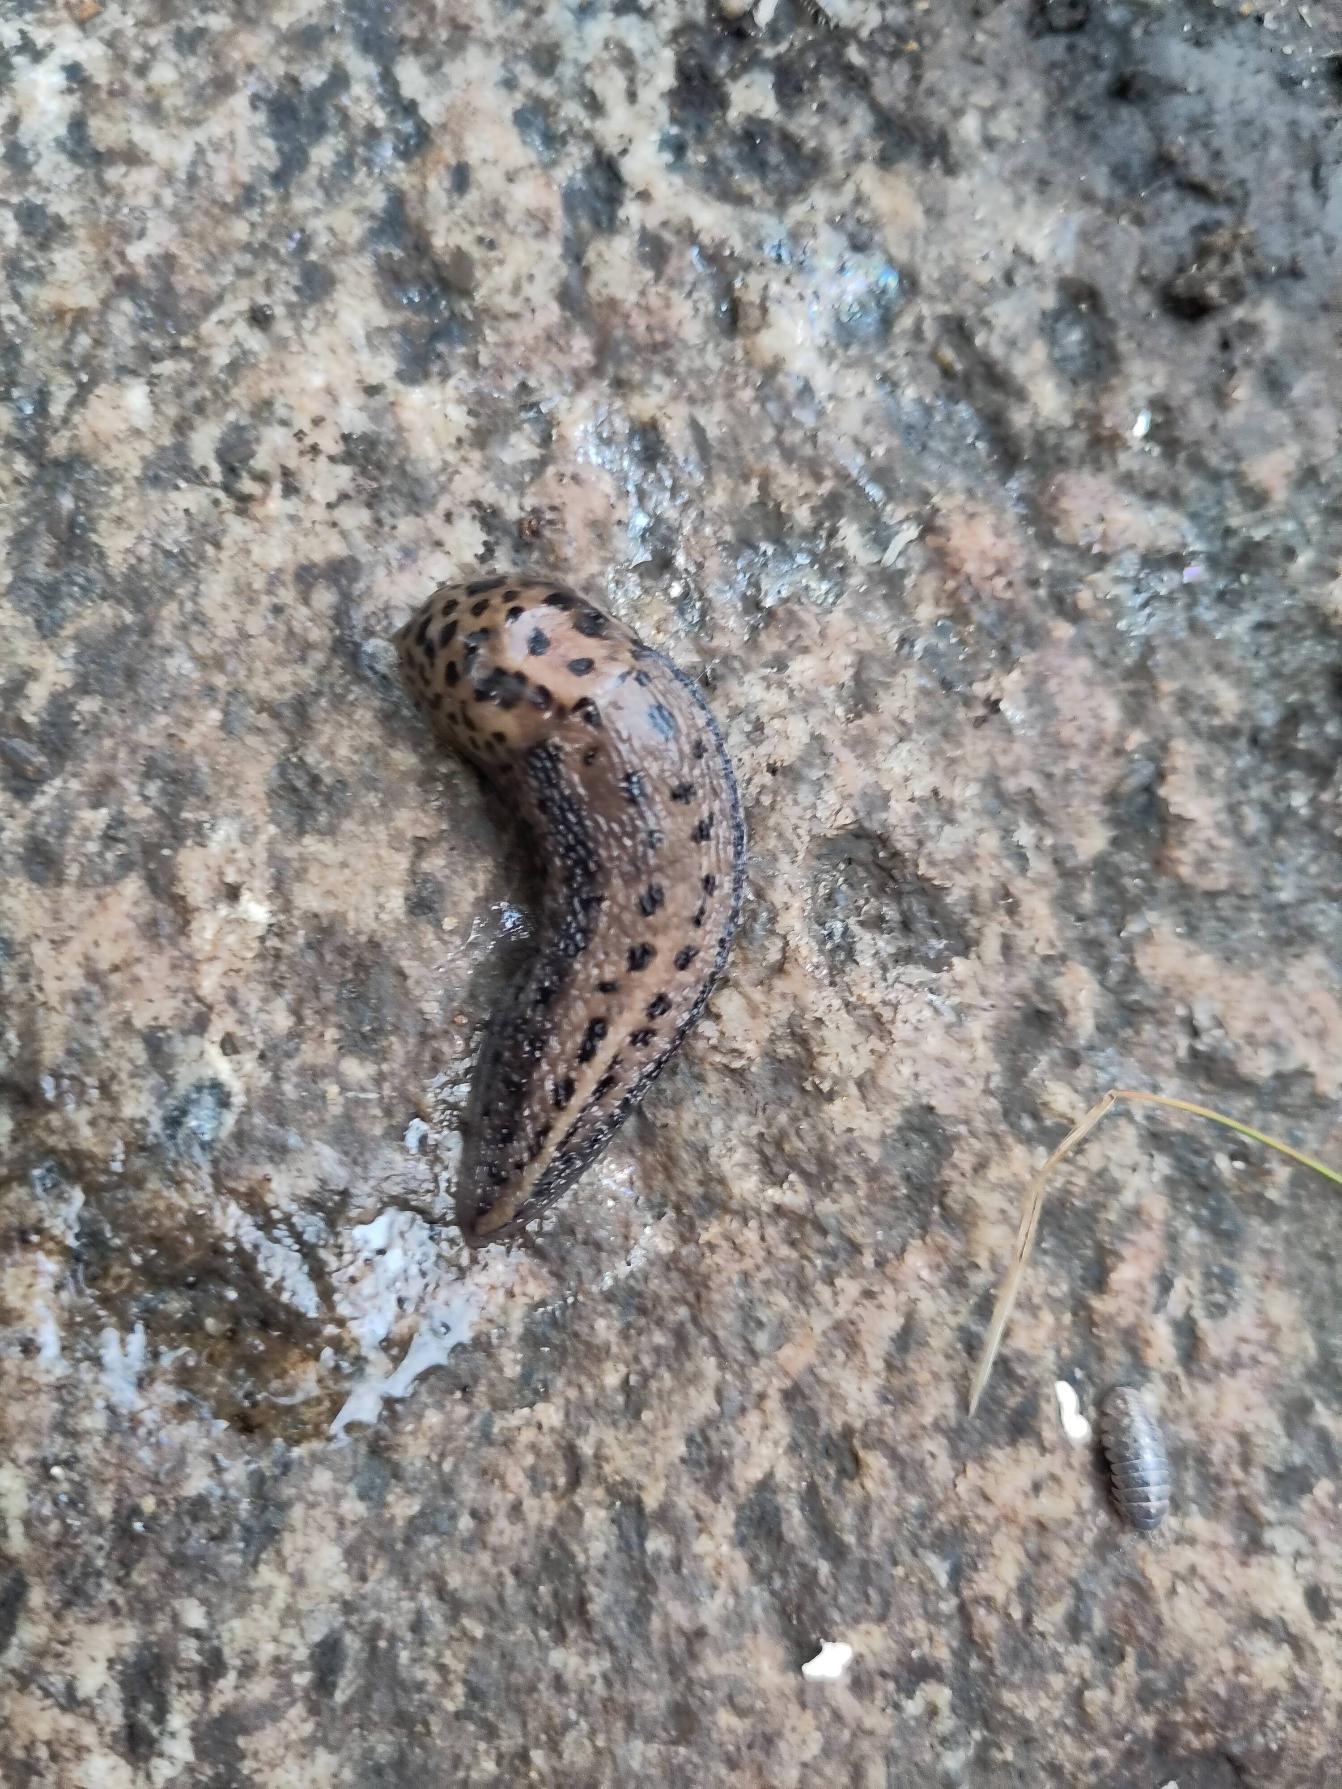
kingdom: Animalia
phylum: Mollusca
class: Gastropoda
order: Stylommatophora
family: Limacidae
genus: Limax
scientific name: Limax maximus
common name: Pantersnegl
